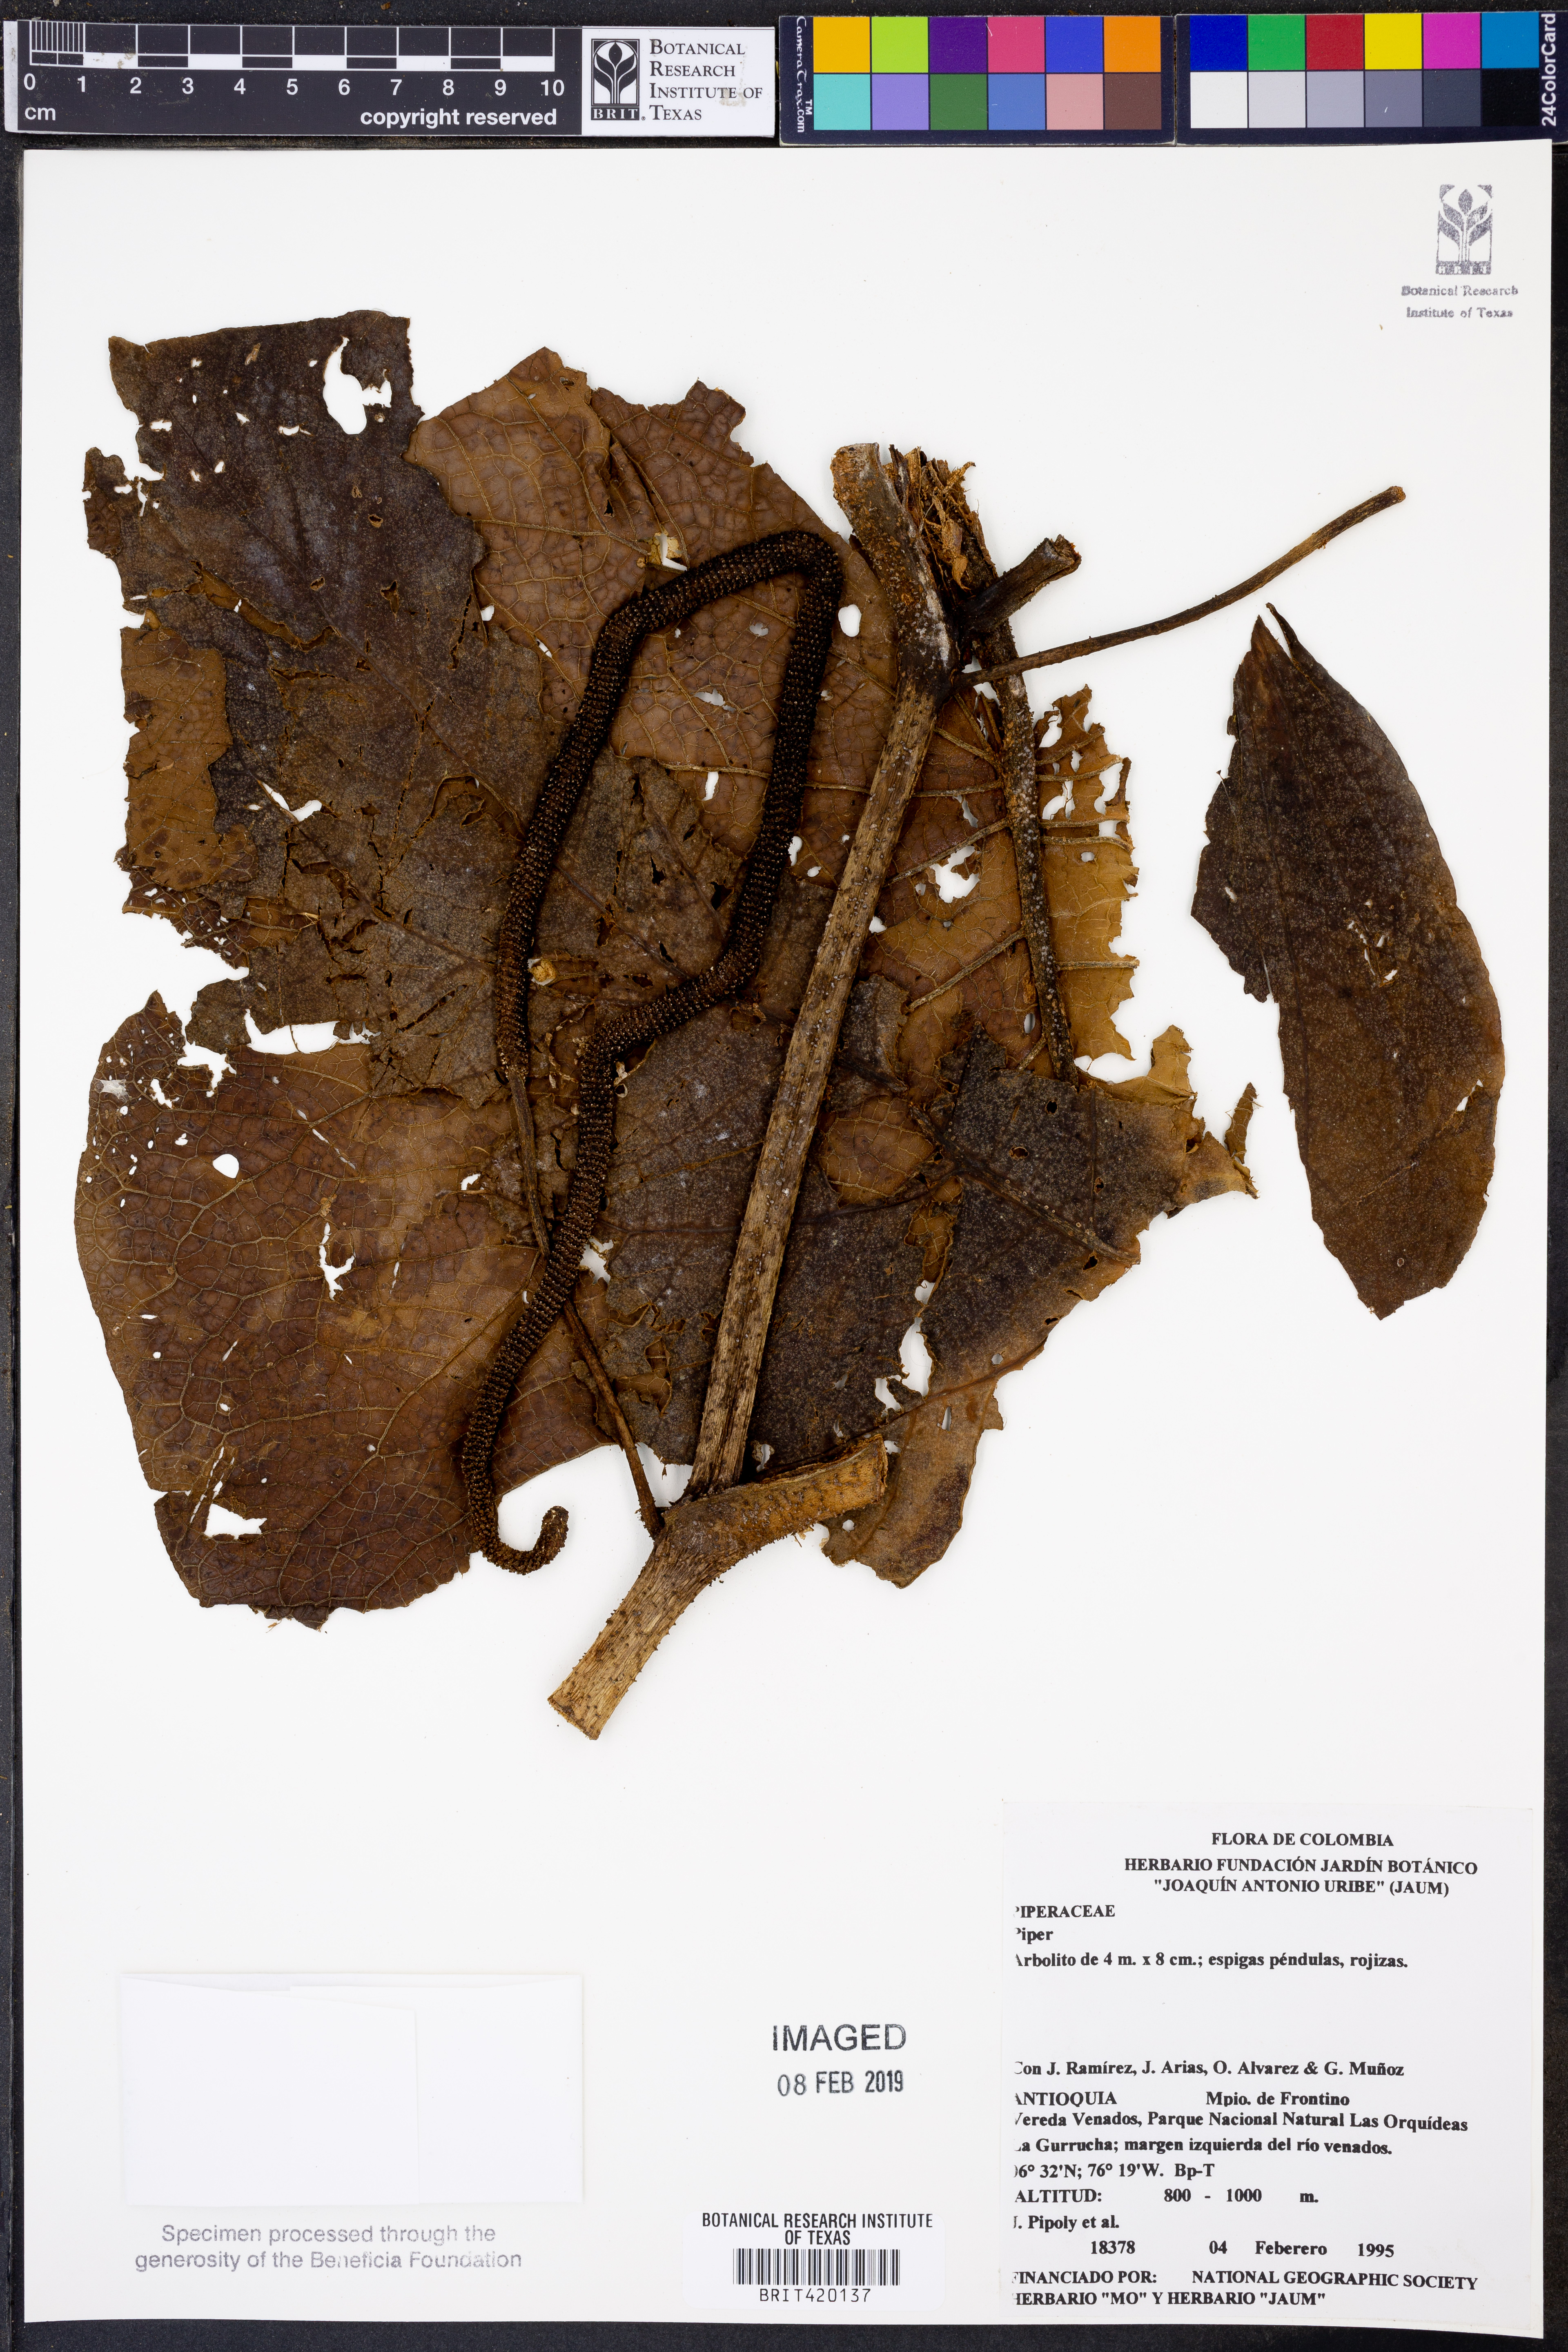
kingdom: Plantae
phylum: Tracheophyta
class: Magnoliopsida
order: Piperales
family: Piperaceae
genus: Piper
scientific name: Piper
